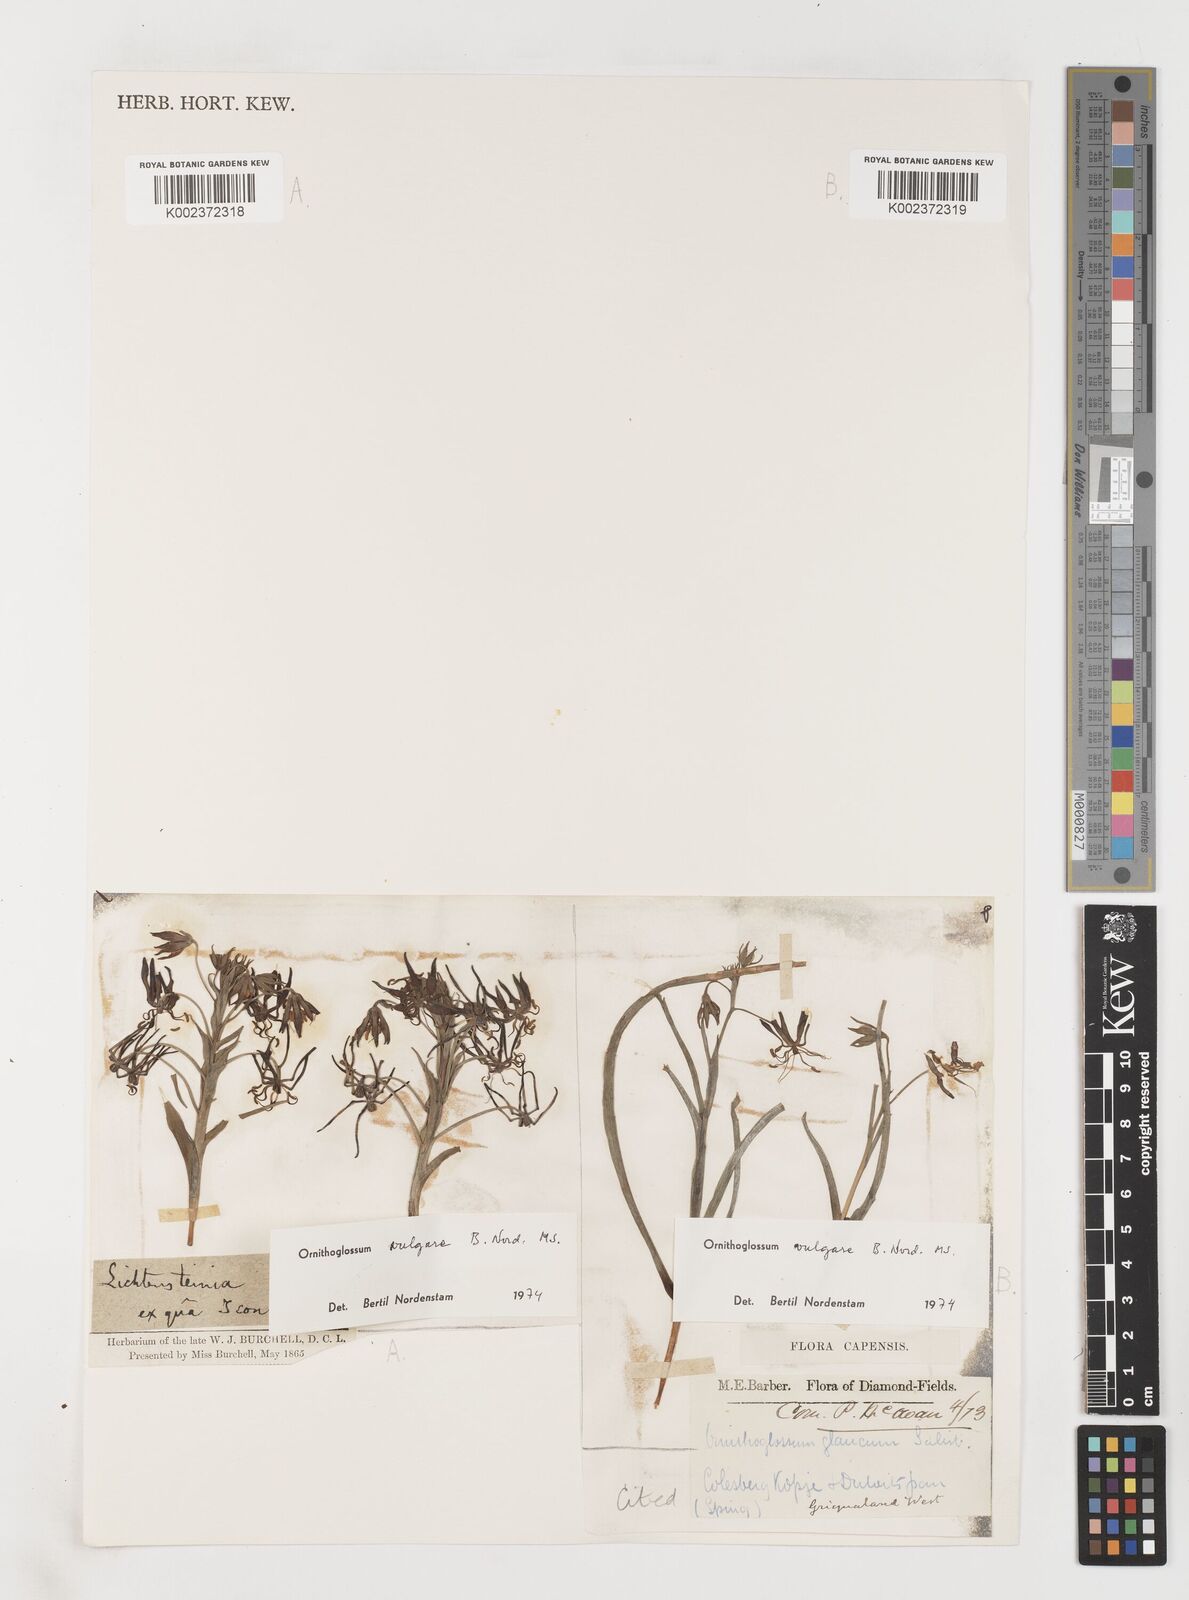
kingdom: Plantae
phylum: Tracheophyta
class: Liliopsida
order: Liliales
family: Colchicaceae
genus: Ornithoglossum
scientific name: Ornithoglossum vulgare
